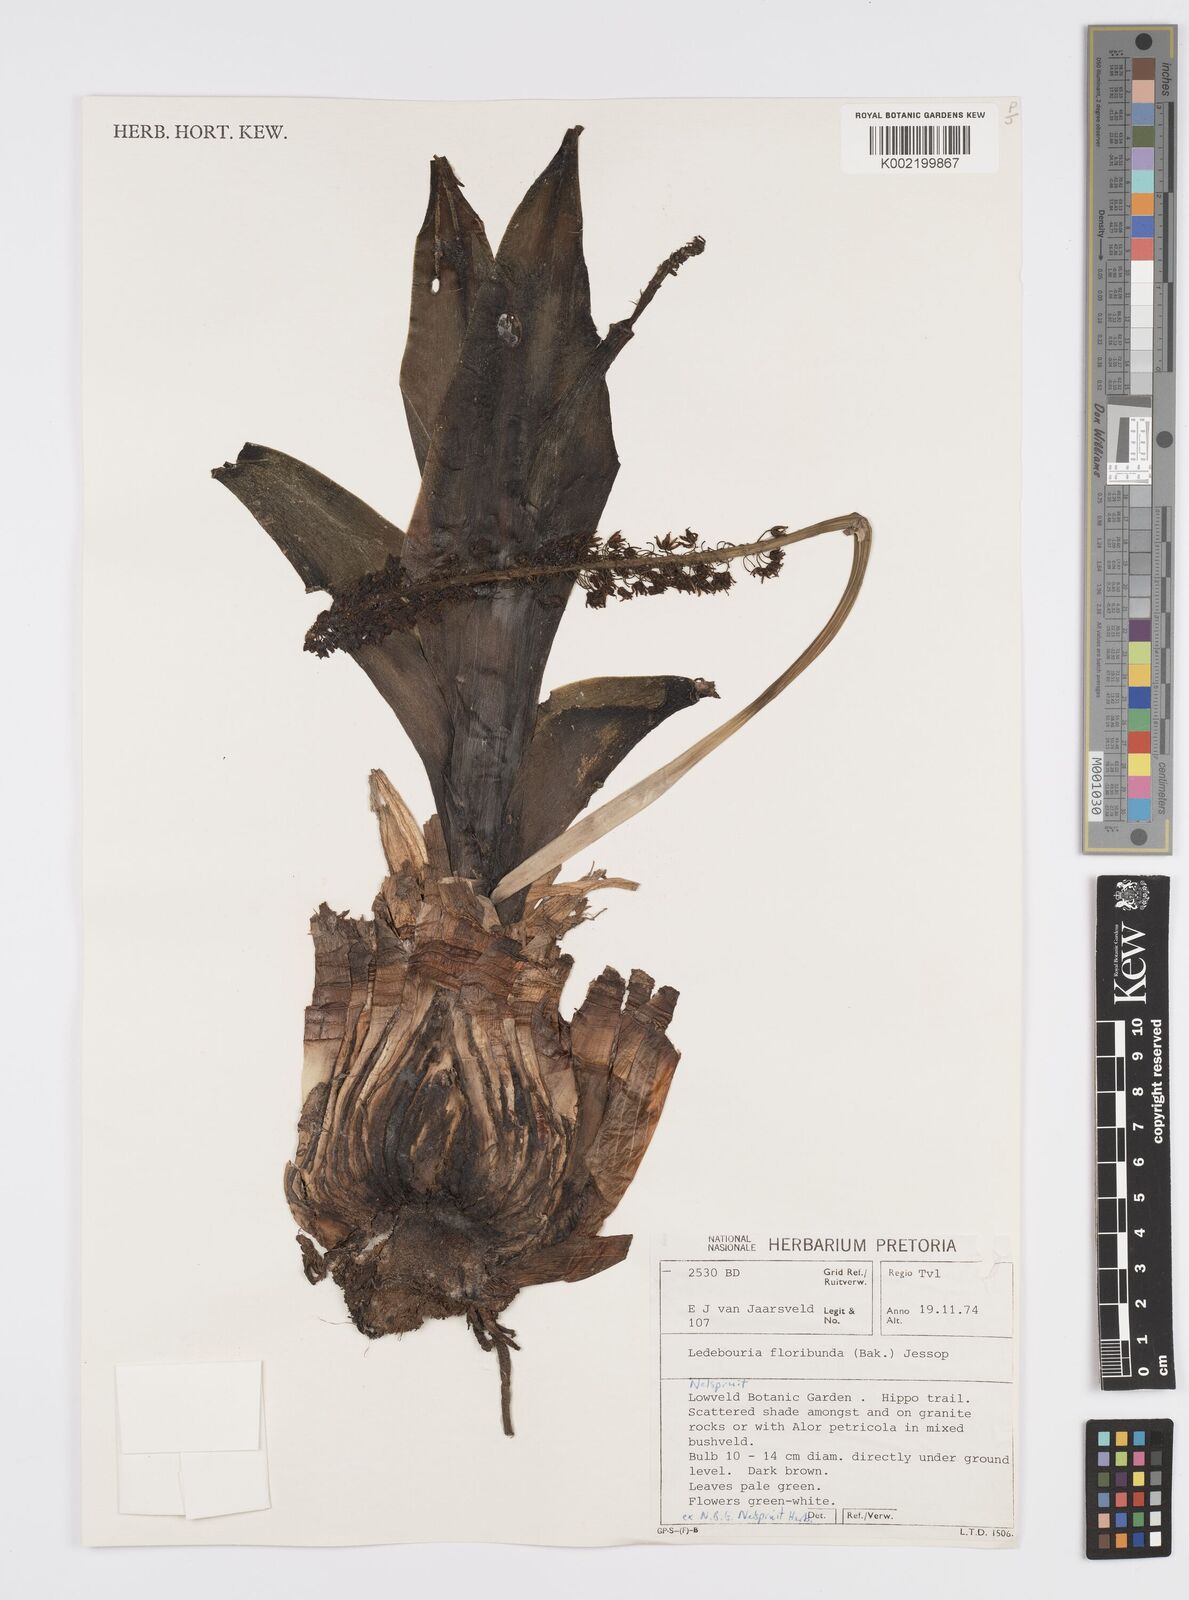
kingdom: Plantae
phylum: Tracheophyta
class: Liliopsida
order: Asparagales
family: Asparagaceae
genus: Ledebouria
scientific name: Ledebouria floribunda
